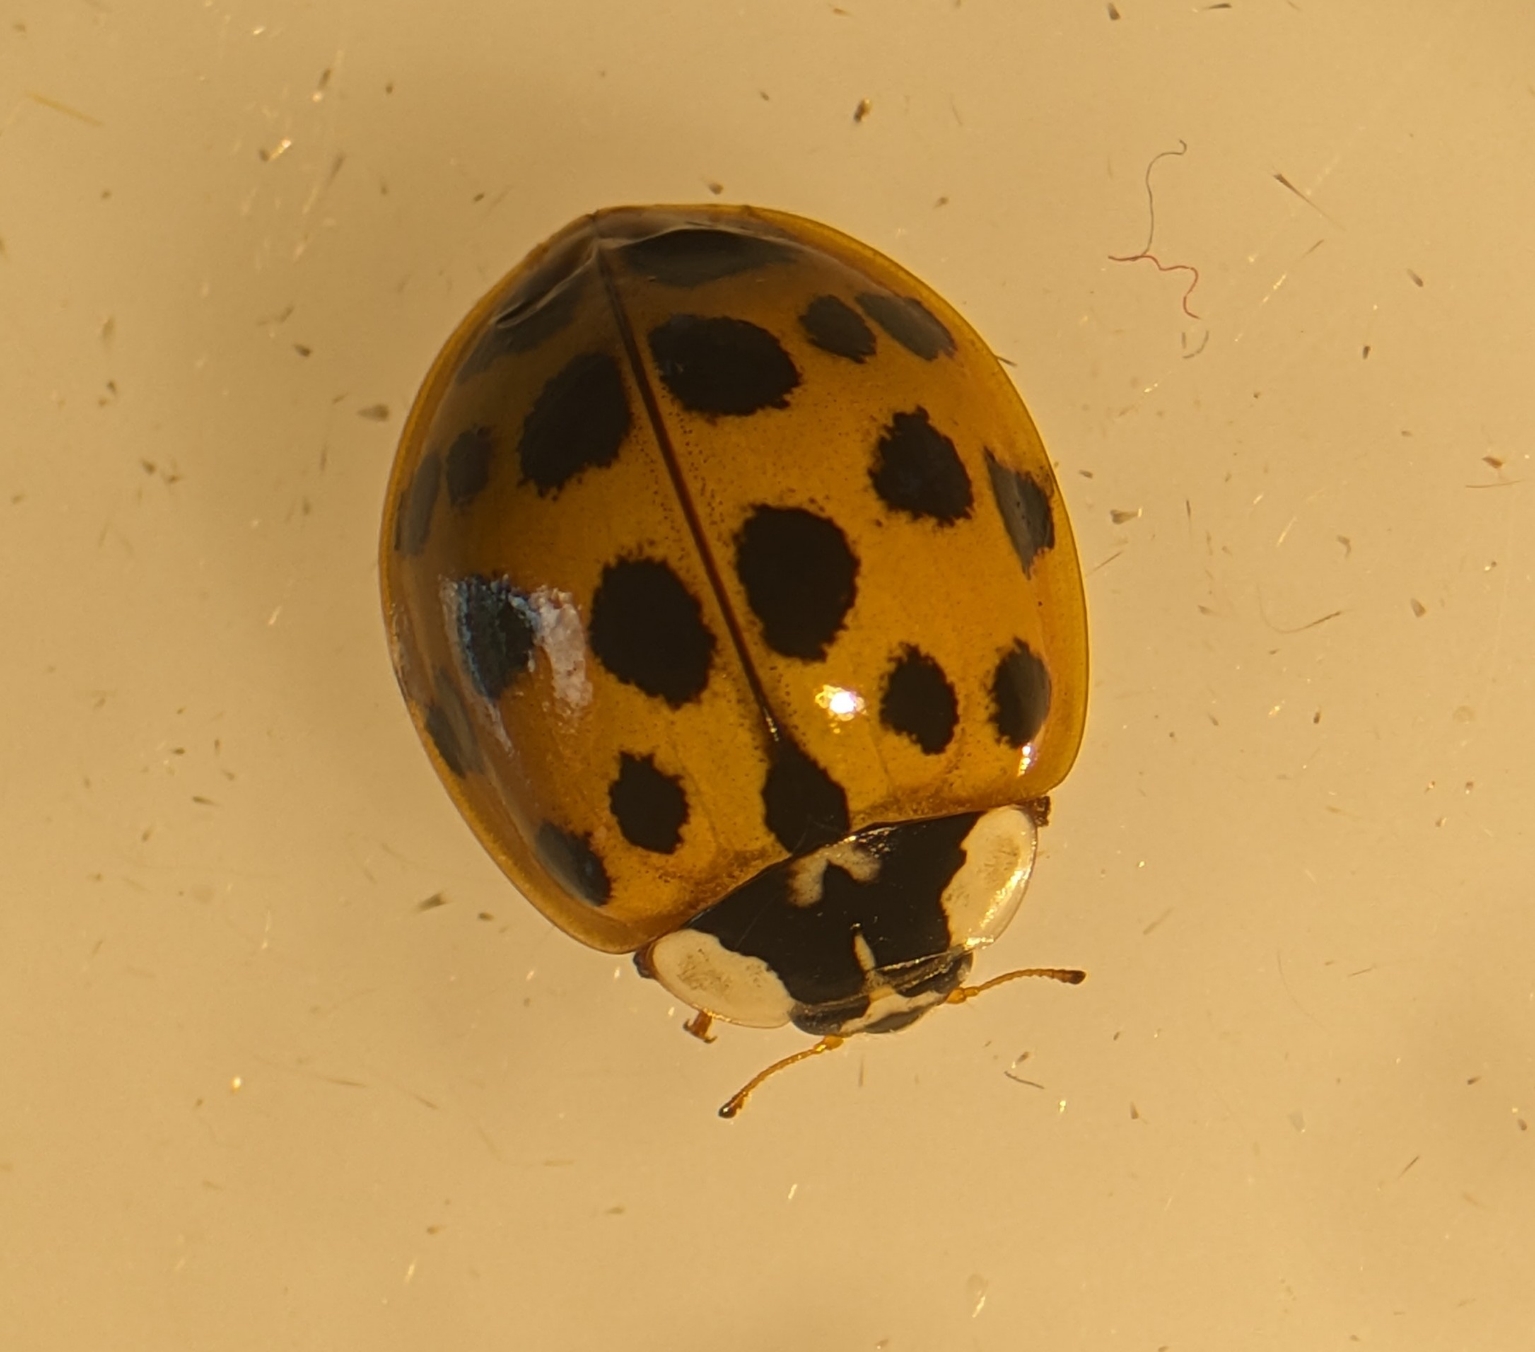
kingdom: Animalia
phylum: Arthropoda
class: Insecta
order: Coleoptera
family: Coccinellidae
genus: Harmonia
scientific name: Harmonia axyridis
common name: Harlekinmariehøne
